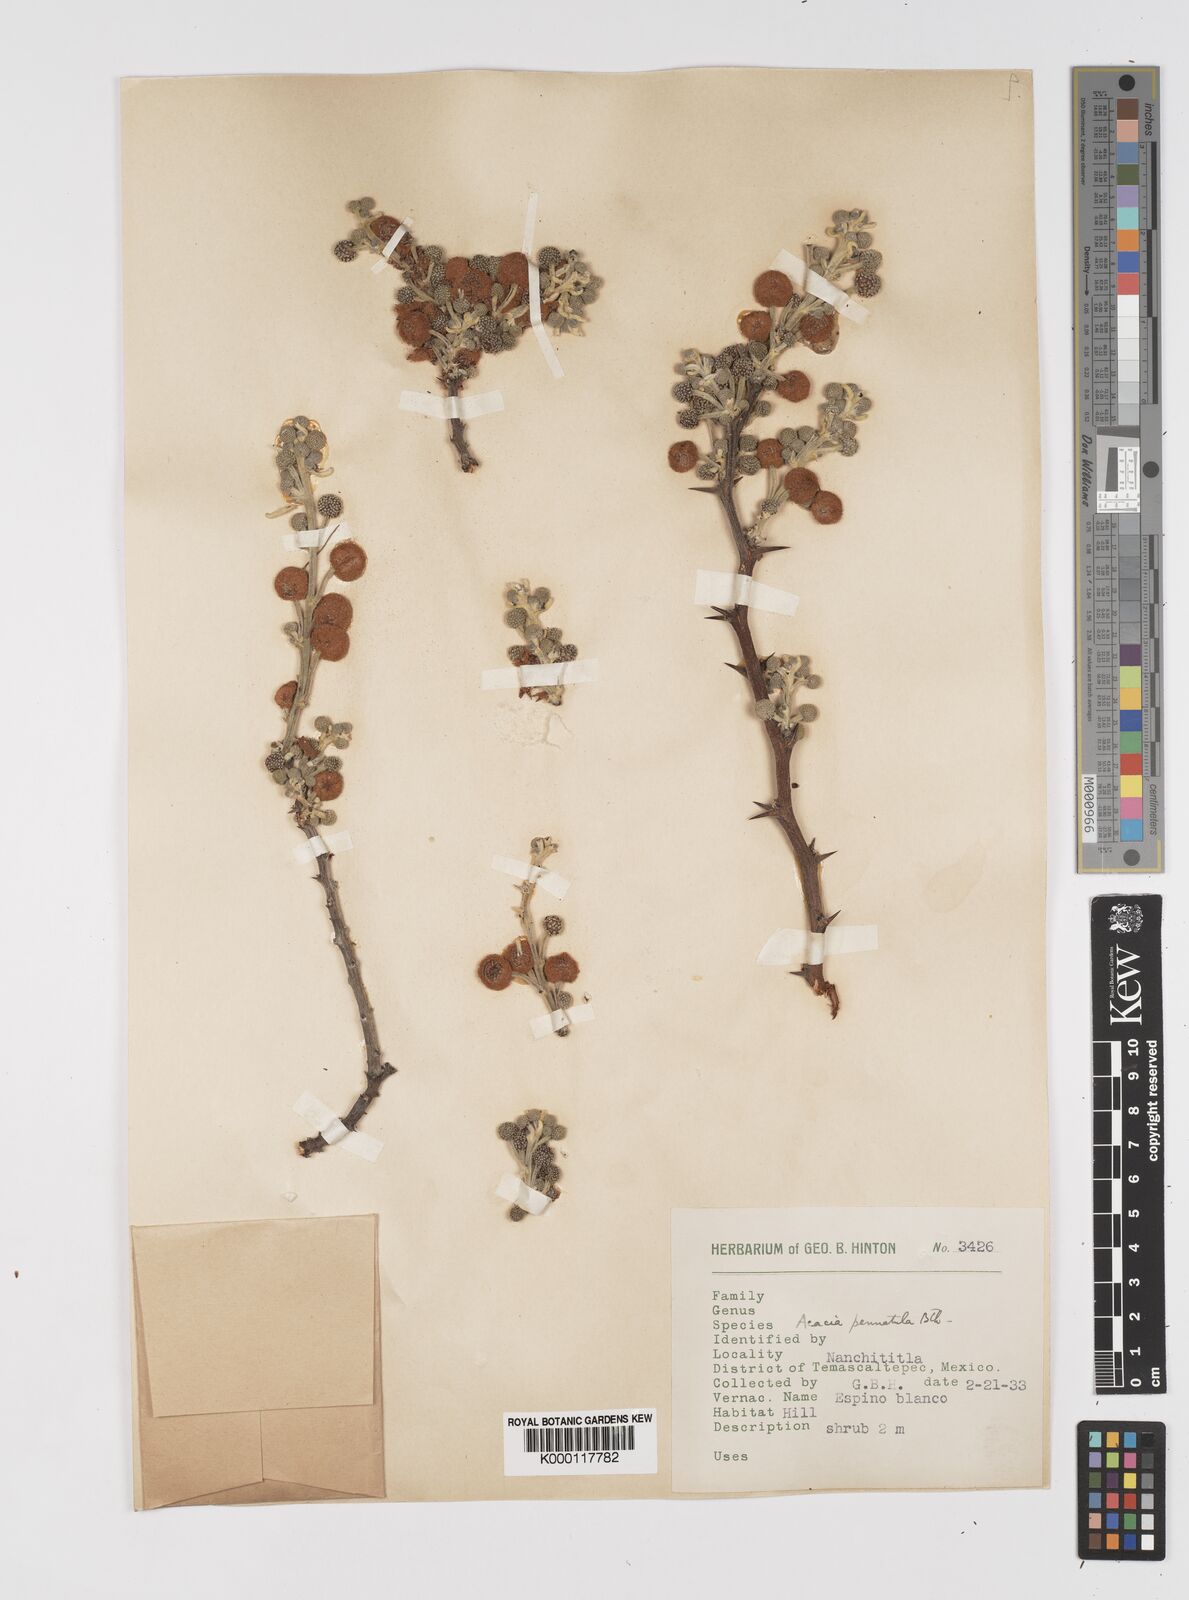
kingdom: Plantae
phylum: Tracheophyta
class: Magnoliopsida
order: Fabales
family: Fabaceae
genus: Vachellia
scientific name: Vachellia pennatula
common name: Fern-leaf acacia
